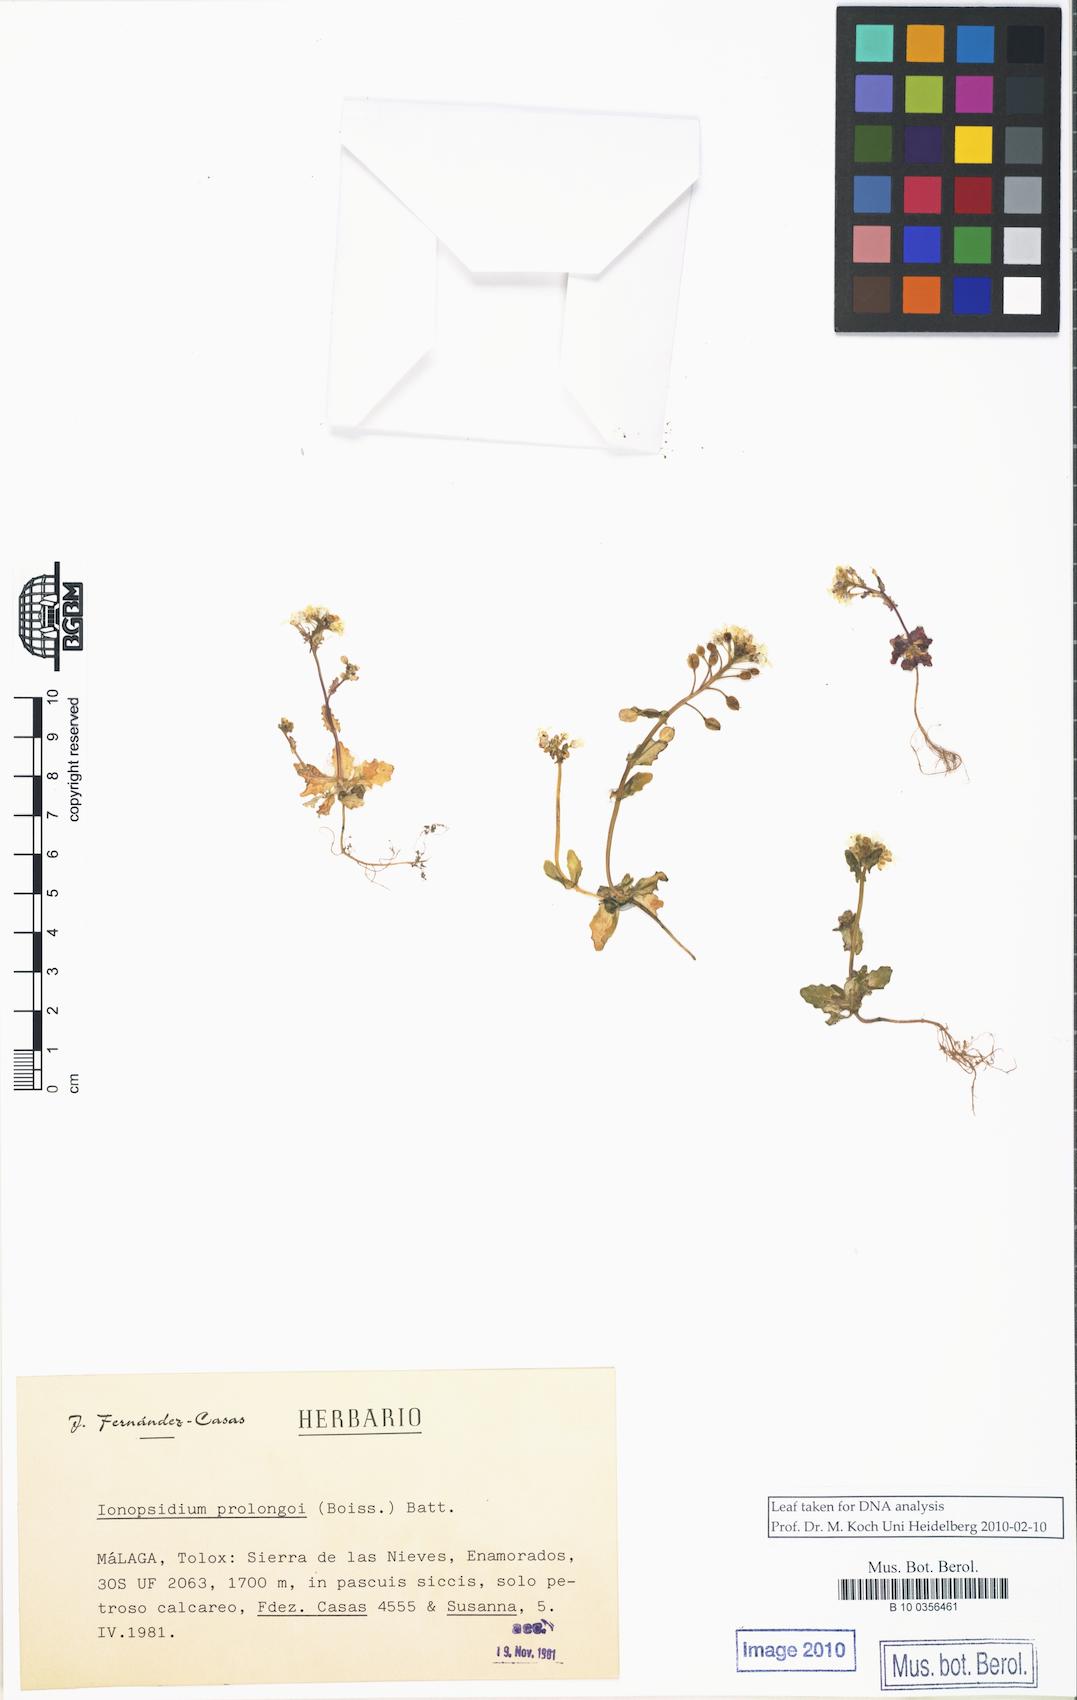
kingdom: Plantae
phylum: Tracheophyta
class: Magnoliopsida
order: Brassicales
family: Brassicaceae
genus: Ionopsidium
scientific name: Ionopsidium prolongoi
